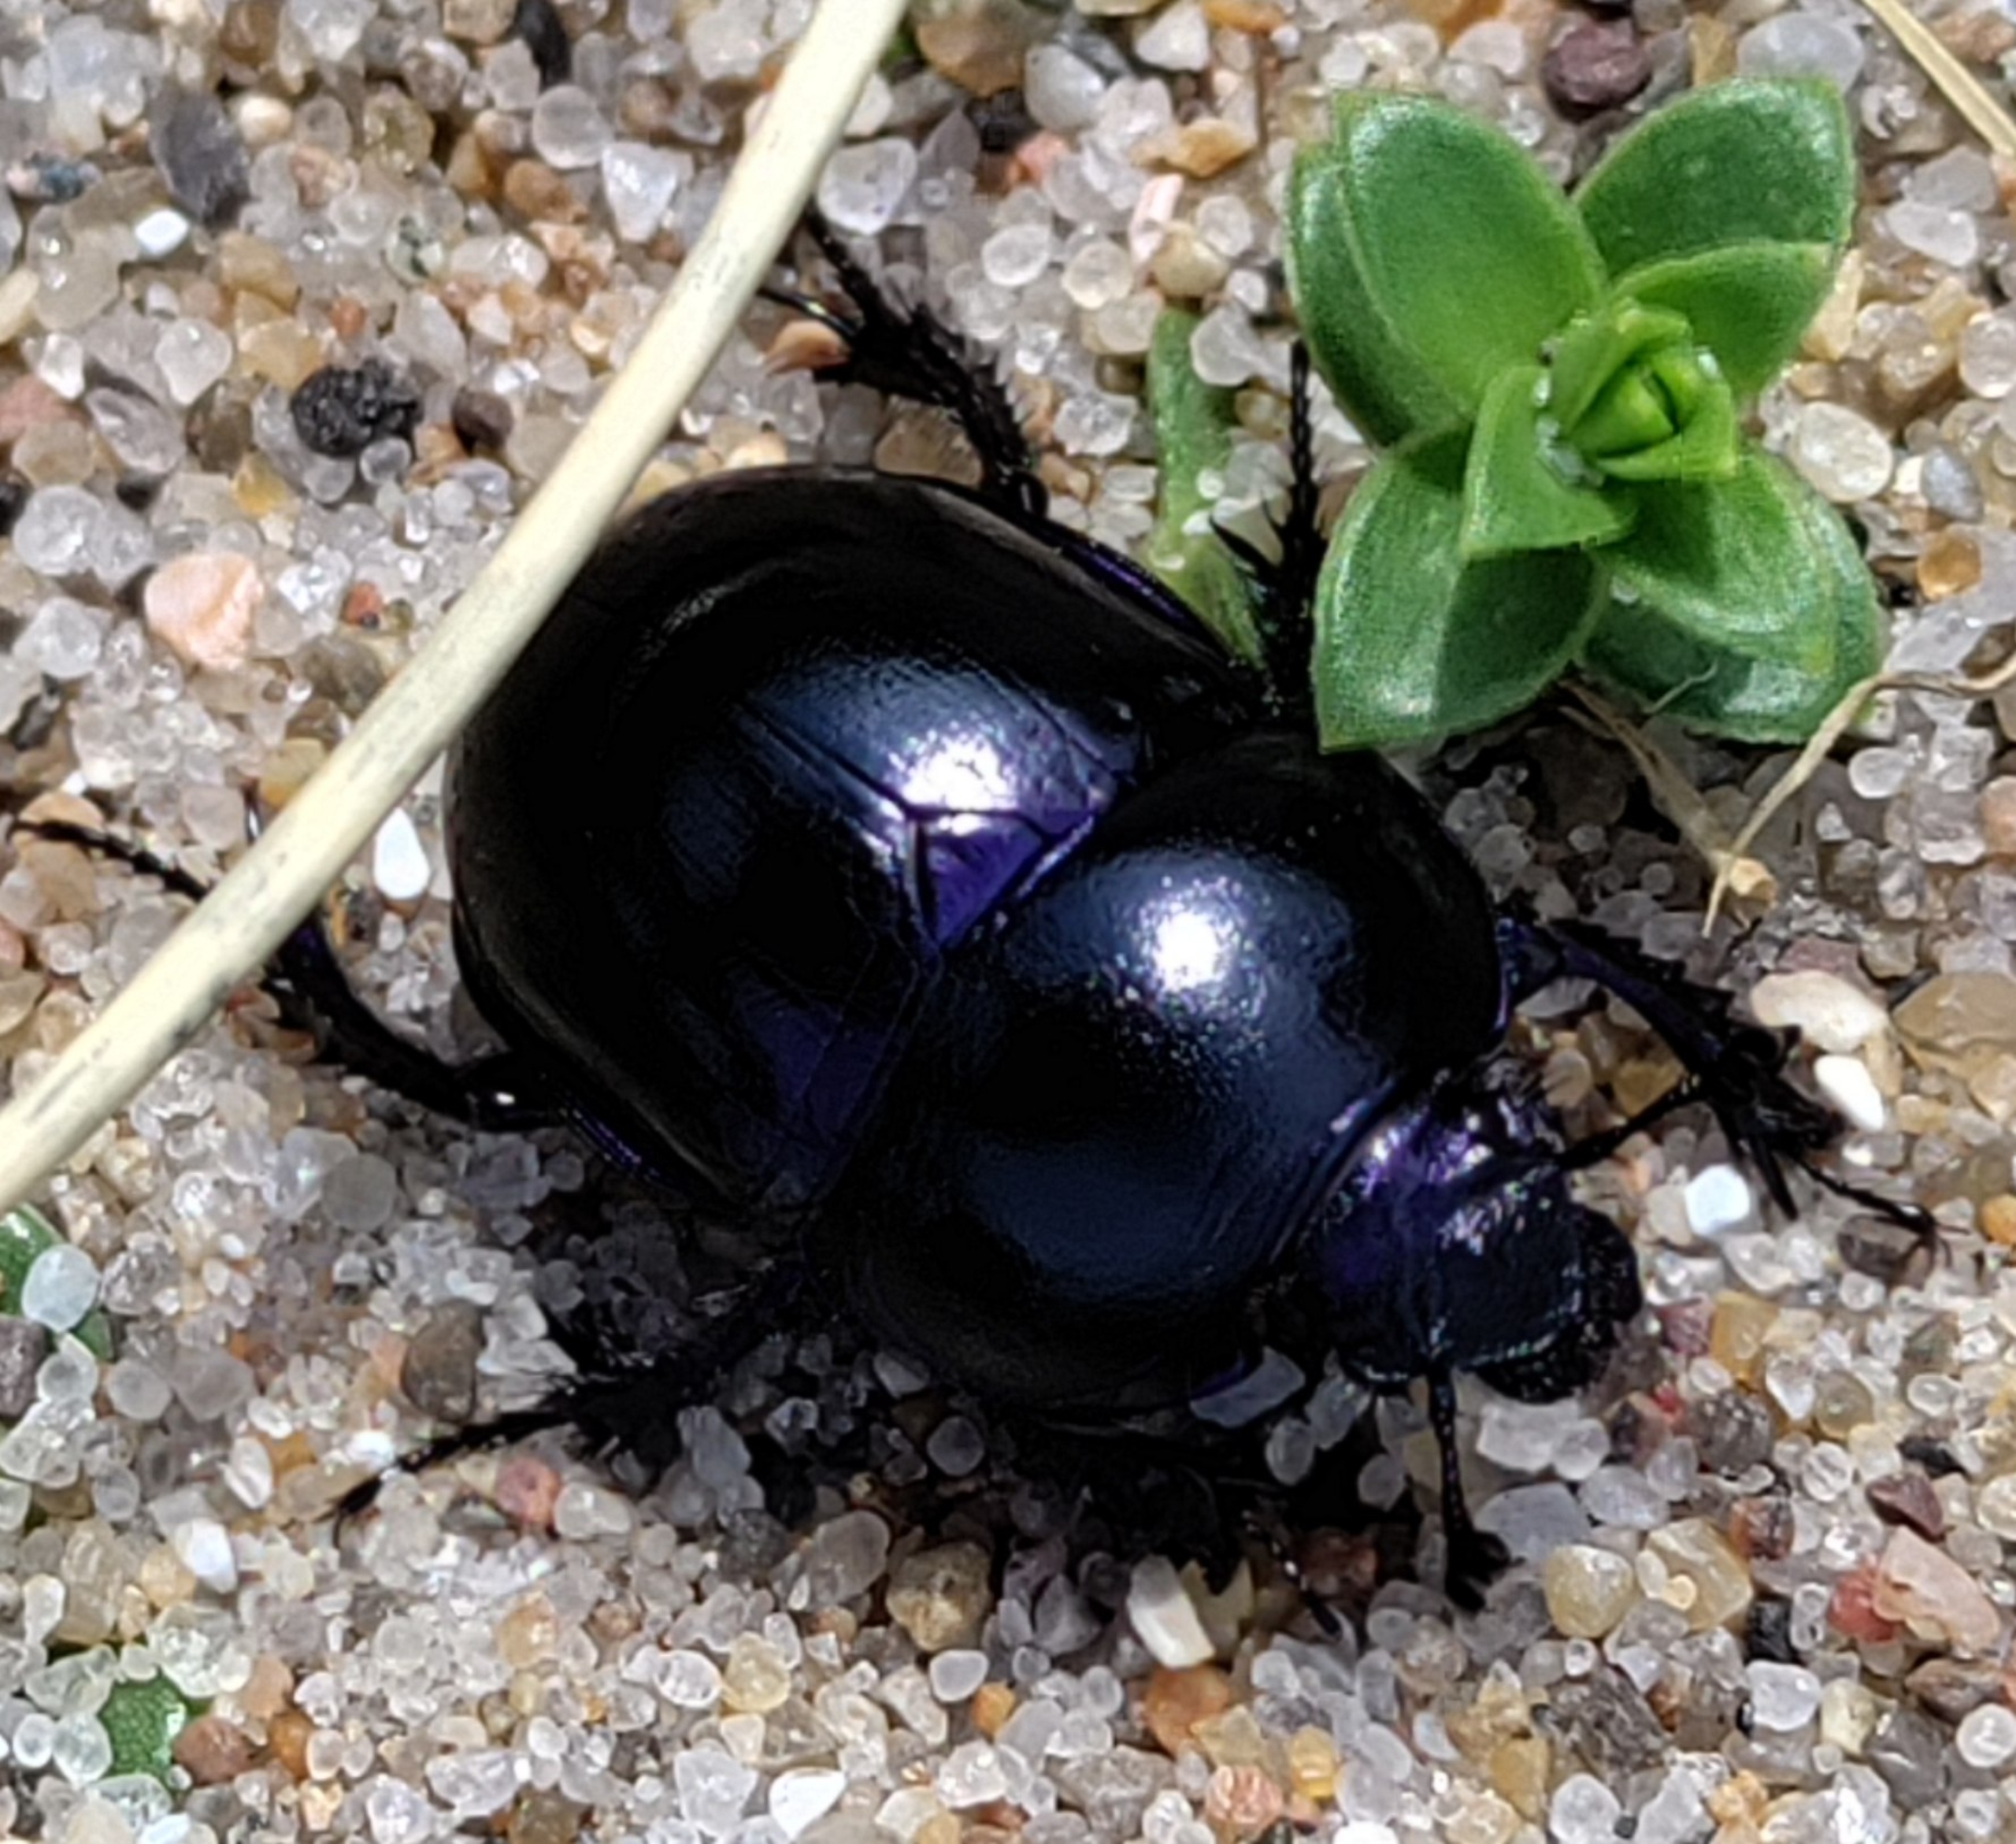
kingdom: Animalia
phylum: Arthropoda
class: Insecta
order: Coleoptera
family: Geotrupidae
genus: Trypocopris
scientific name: Trypocopris vernalis
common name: Glat skarnbasse
